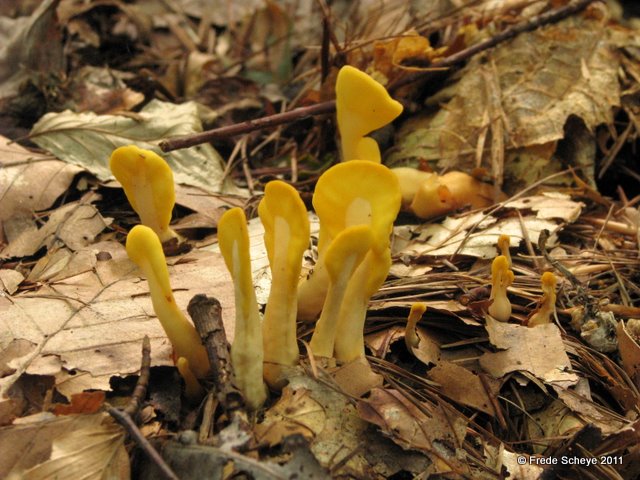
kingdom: Fungi
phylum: Ascomycota
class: Leotiomycetes
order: Rhytismatales
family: Cudoniaceae
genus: Spathularia
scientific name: Spathularia flavida
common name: gul spatelsvamp
